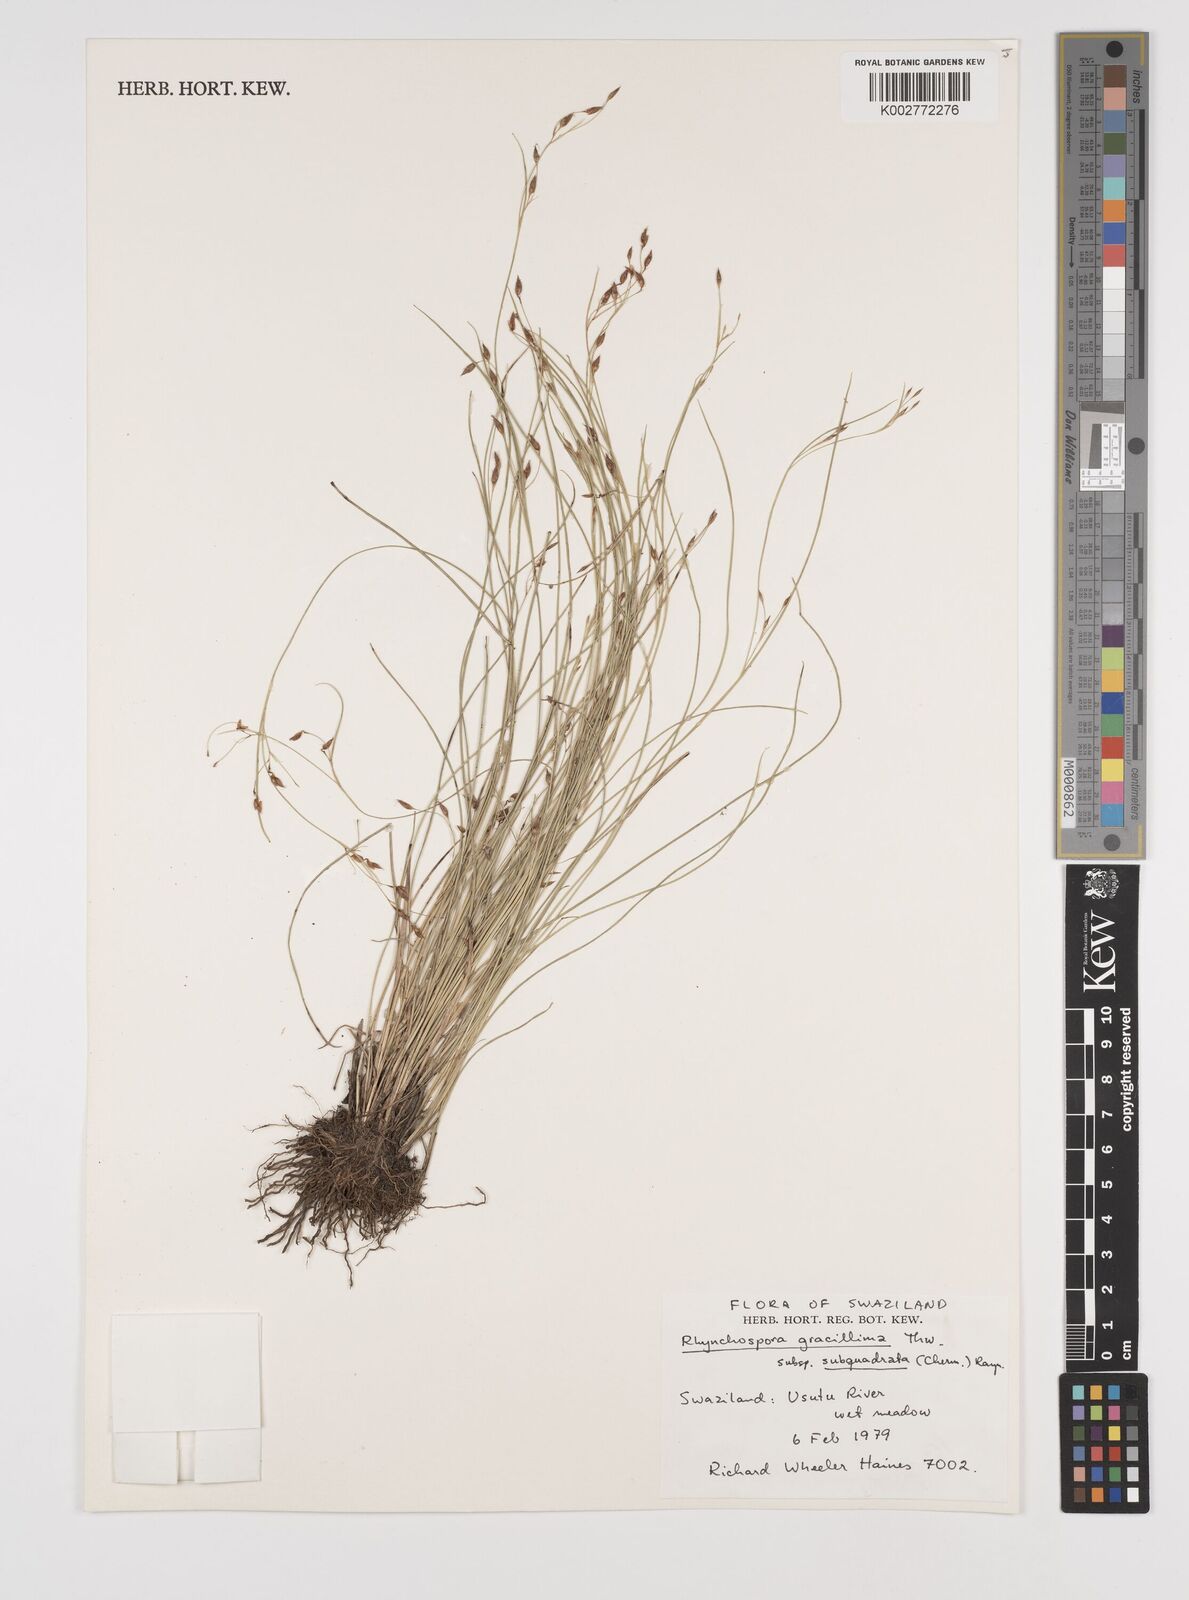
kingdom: Plantae
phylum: Tracheophyta
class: Liliopsida
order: Poales
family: Cyperaceae
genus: Rhynchospora
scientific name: Rhynchospora gracillima
